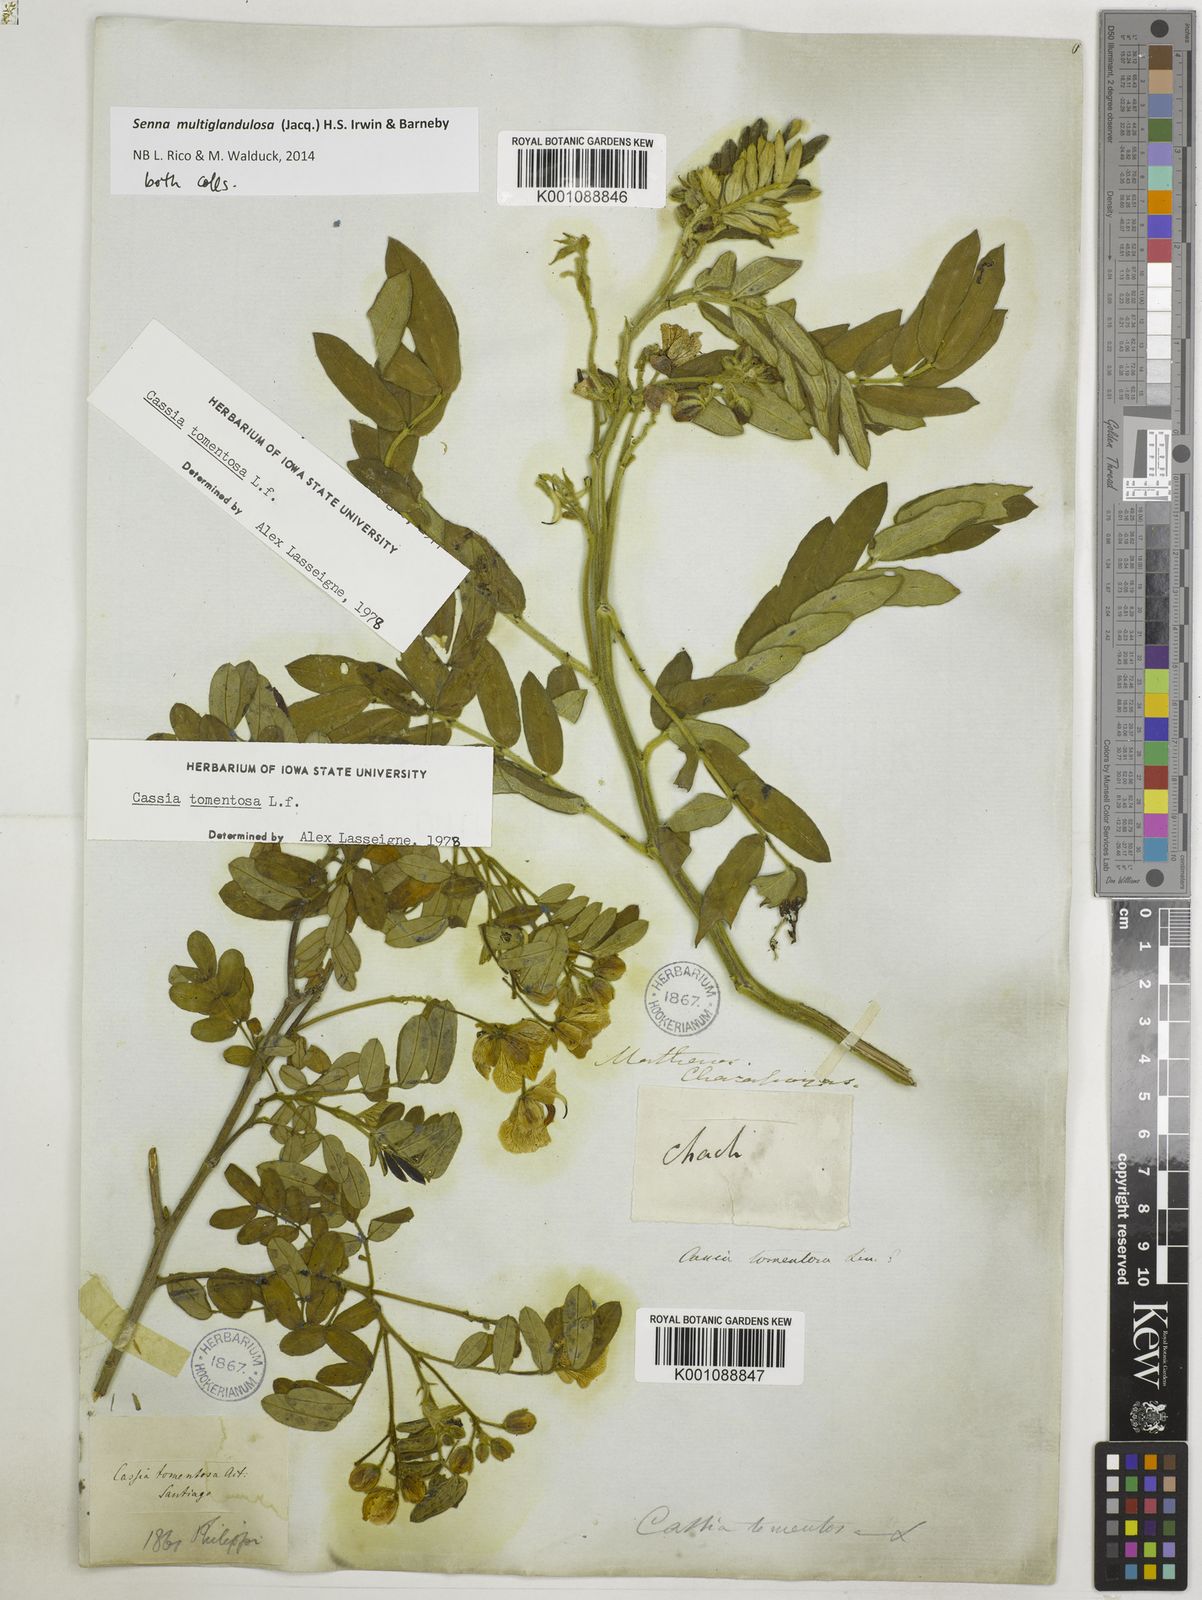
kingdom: Plantae
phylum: Tracheophyta
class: Magnoliopsida
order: Fabales
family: Fabaceae
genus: Senna
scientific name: Senna multiglandulosa
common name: Glandular senna
